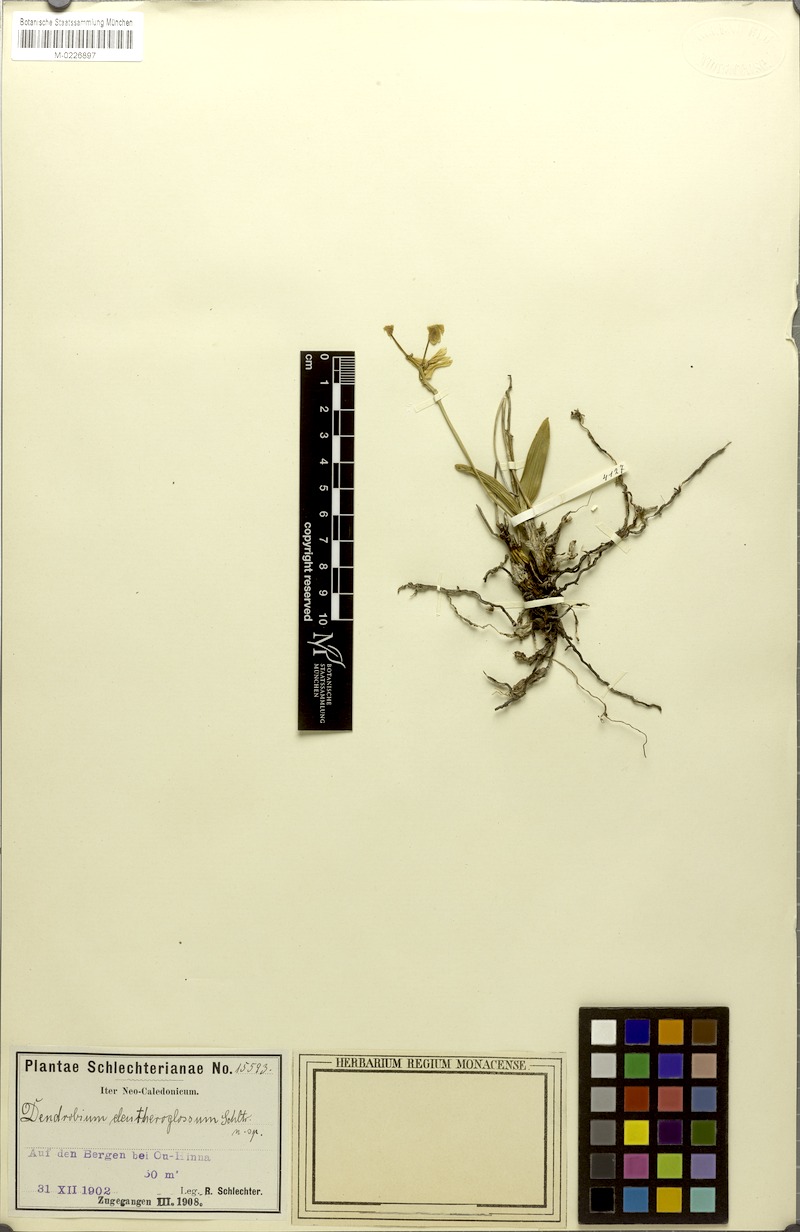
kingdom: Plantae
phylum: Tracheophyta
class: Liliopsida
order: Asparagales
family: Orchidaceae
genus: Dendrobium
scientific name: Dendrobium closterium
